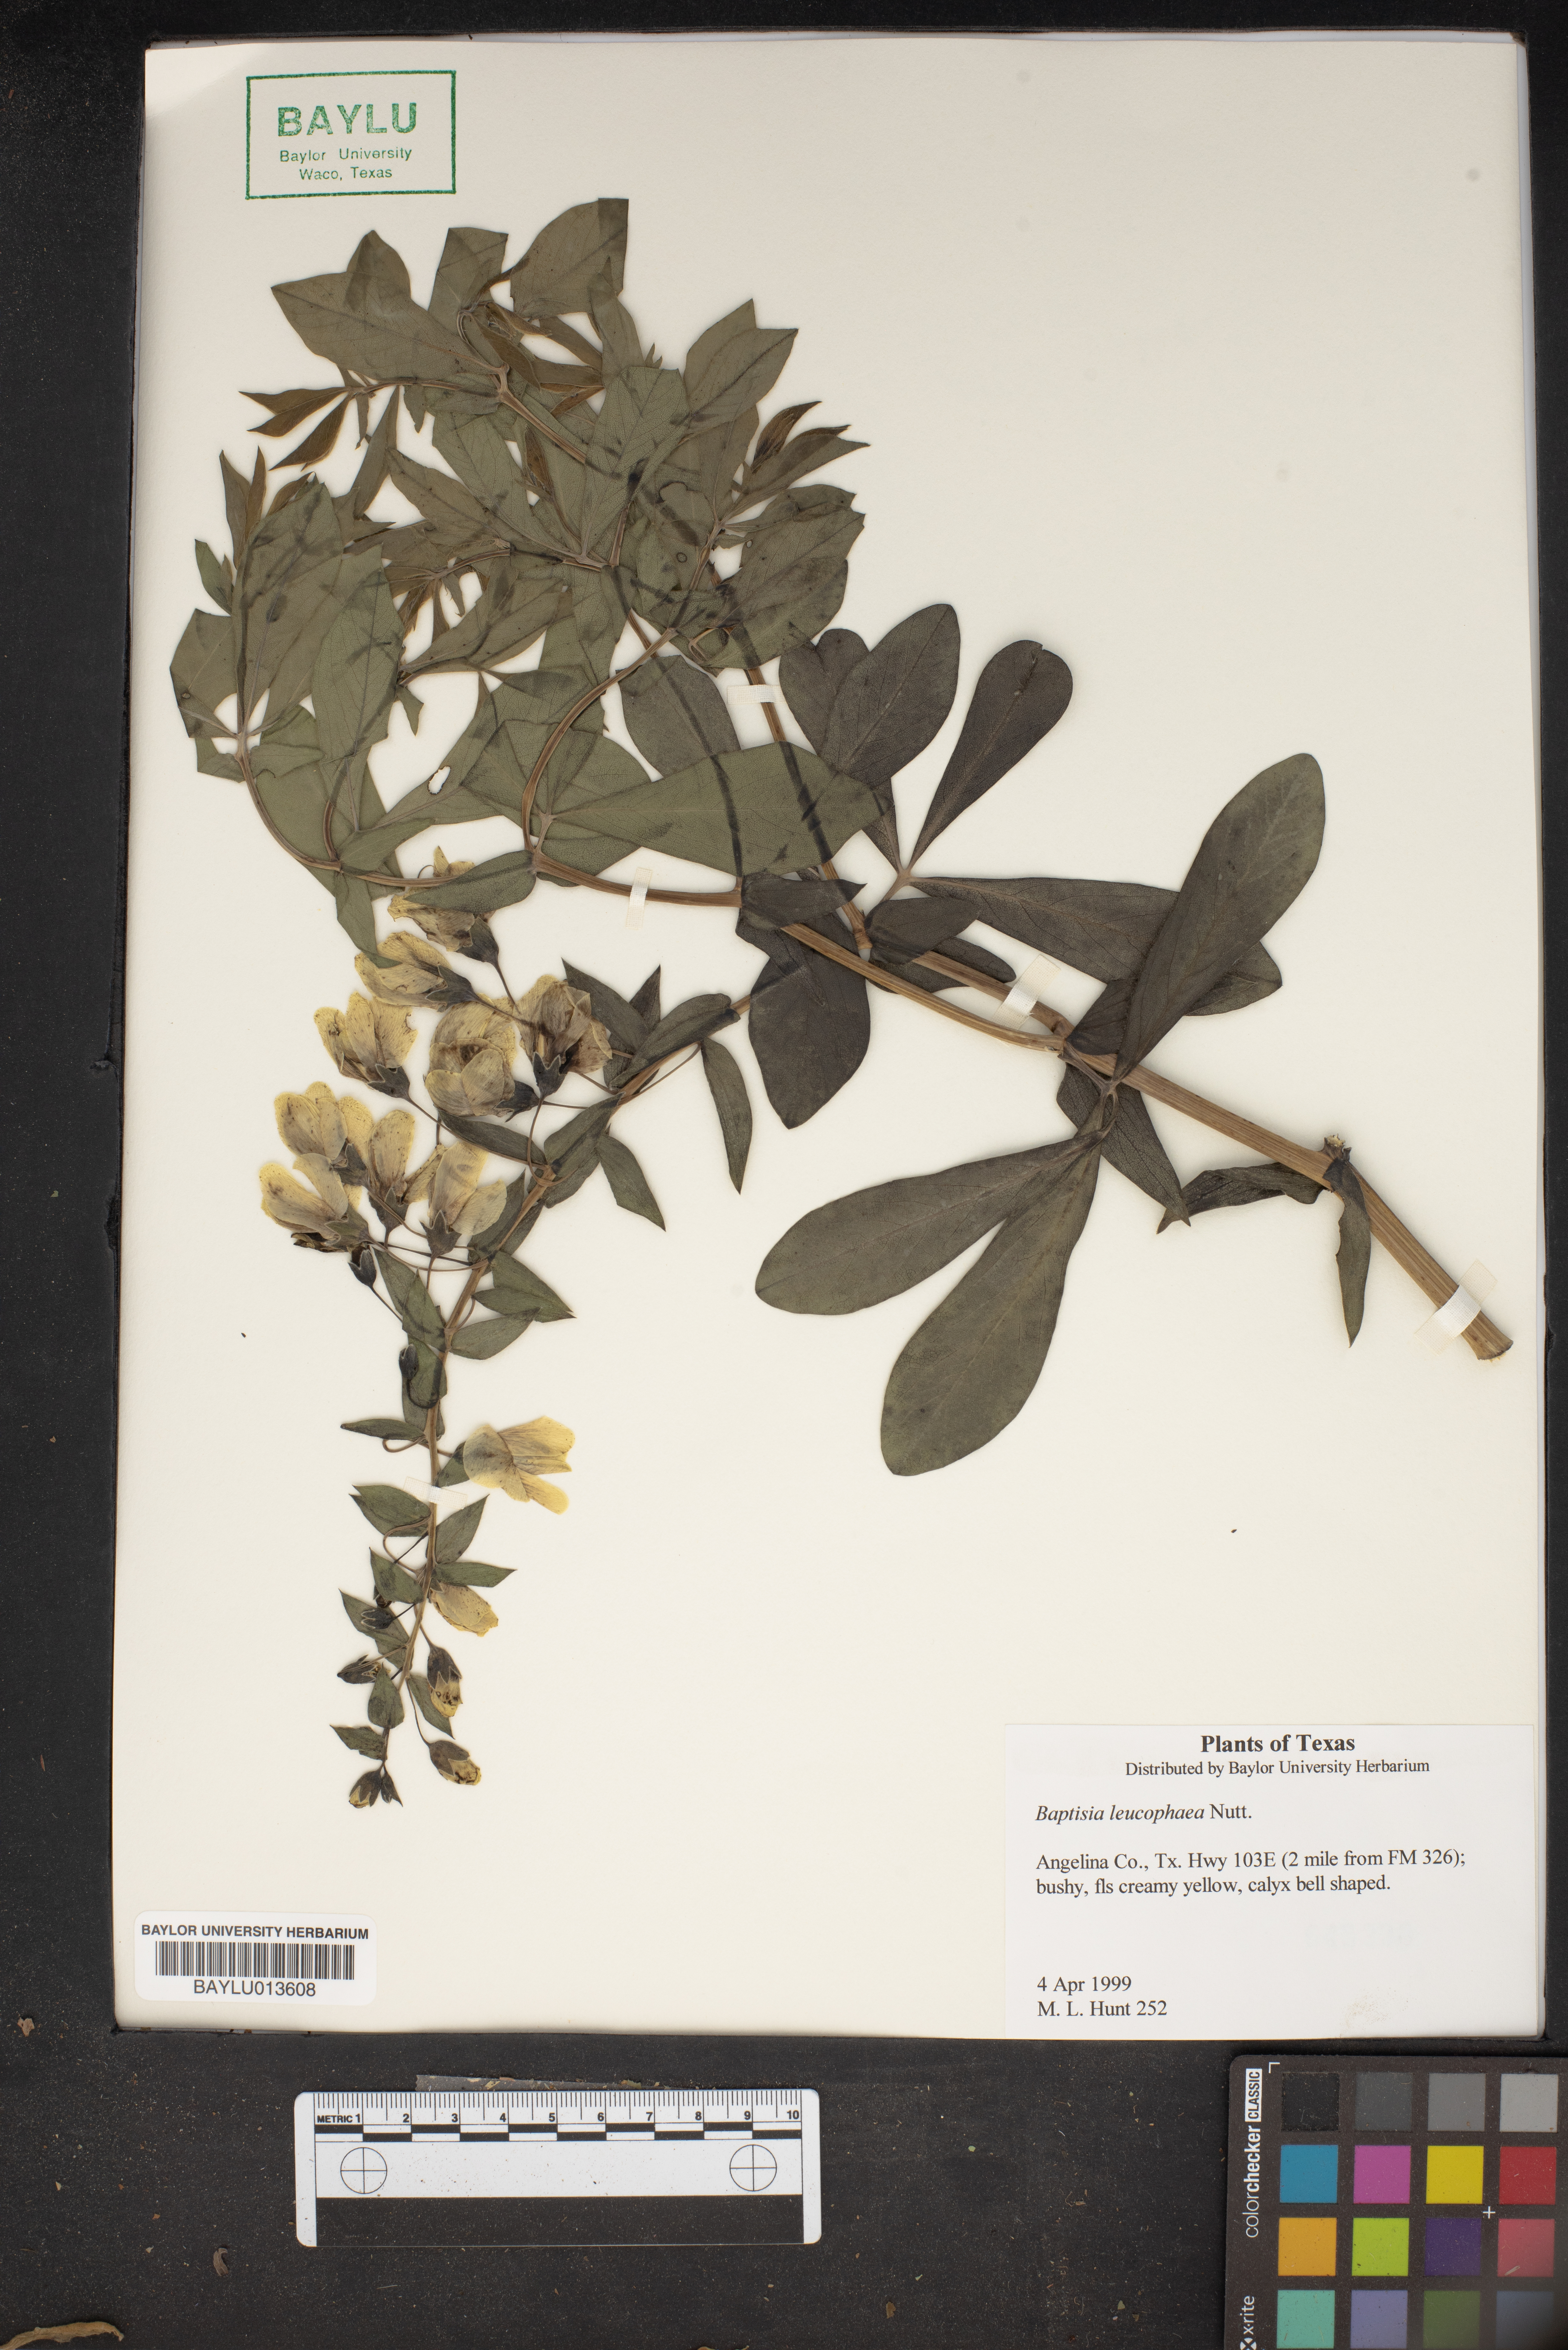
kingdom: Plantae
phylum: Tracheophyta
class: Magnoliopsida
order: Fabales
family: Fabaceae
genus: Baptisia
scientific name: Baptisia bracteata
